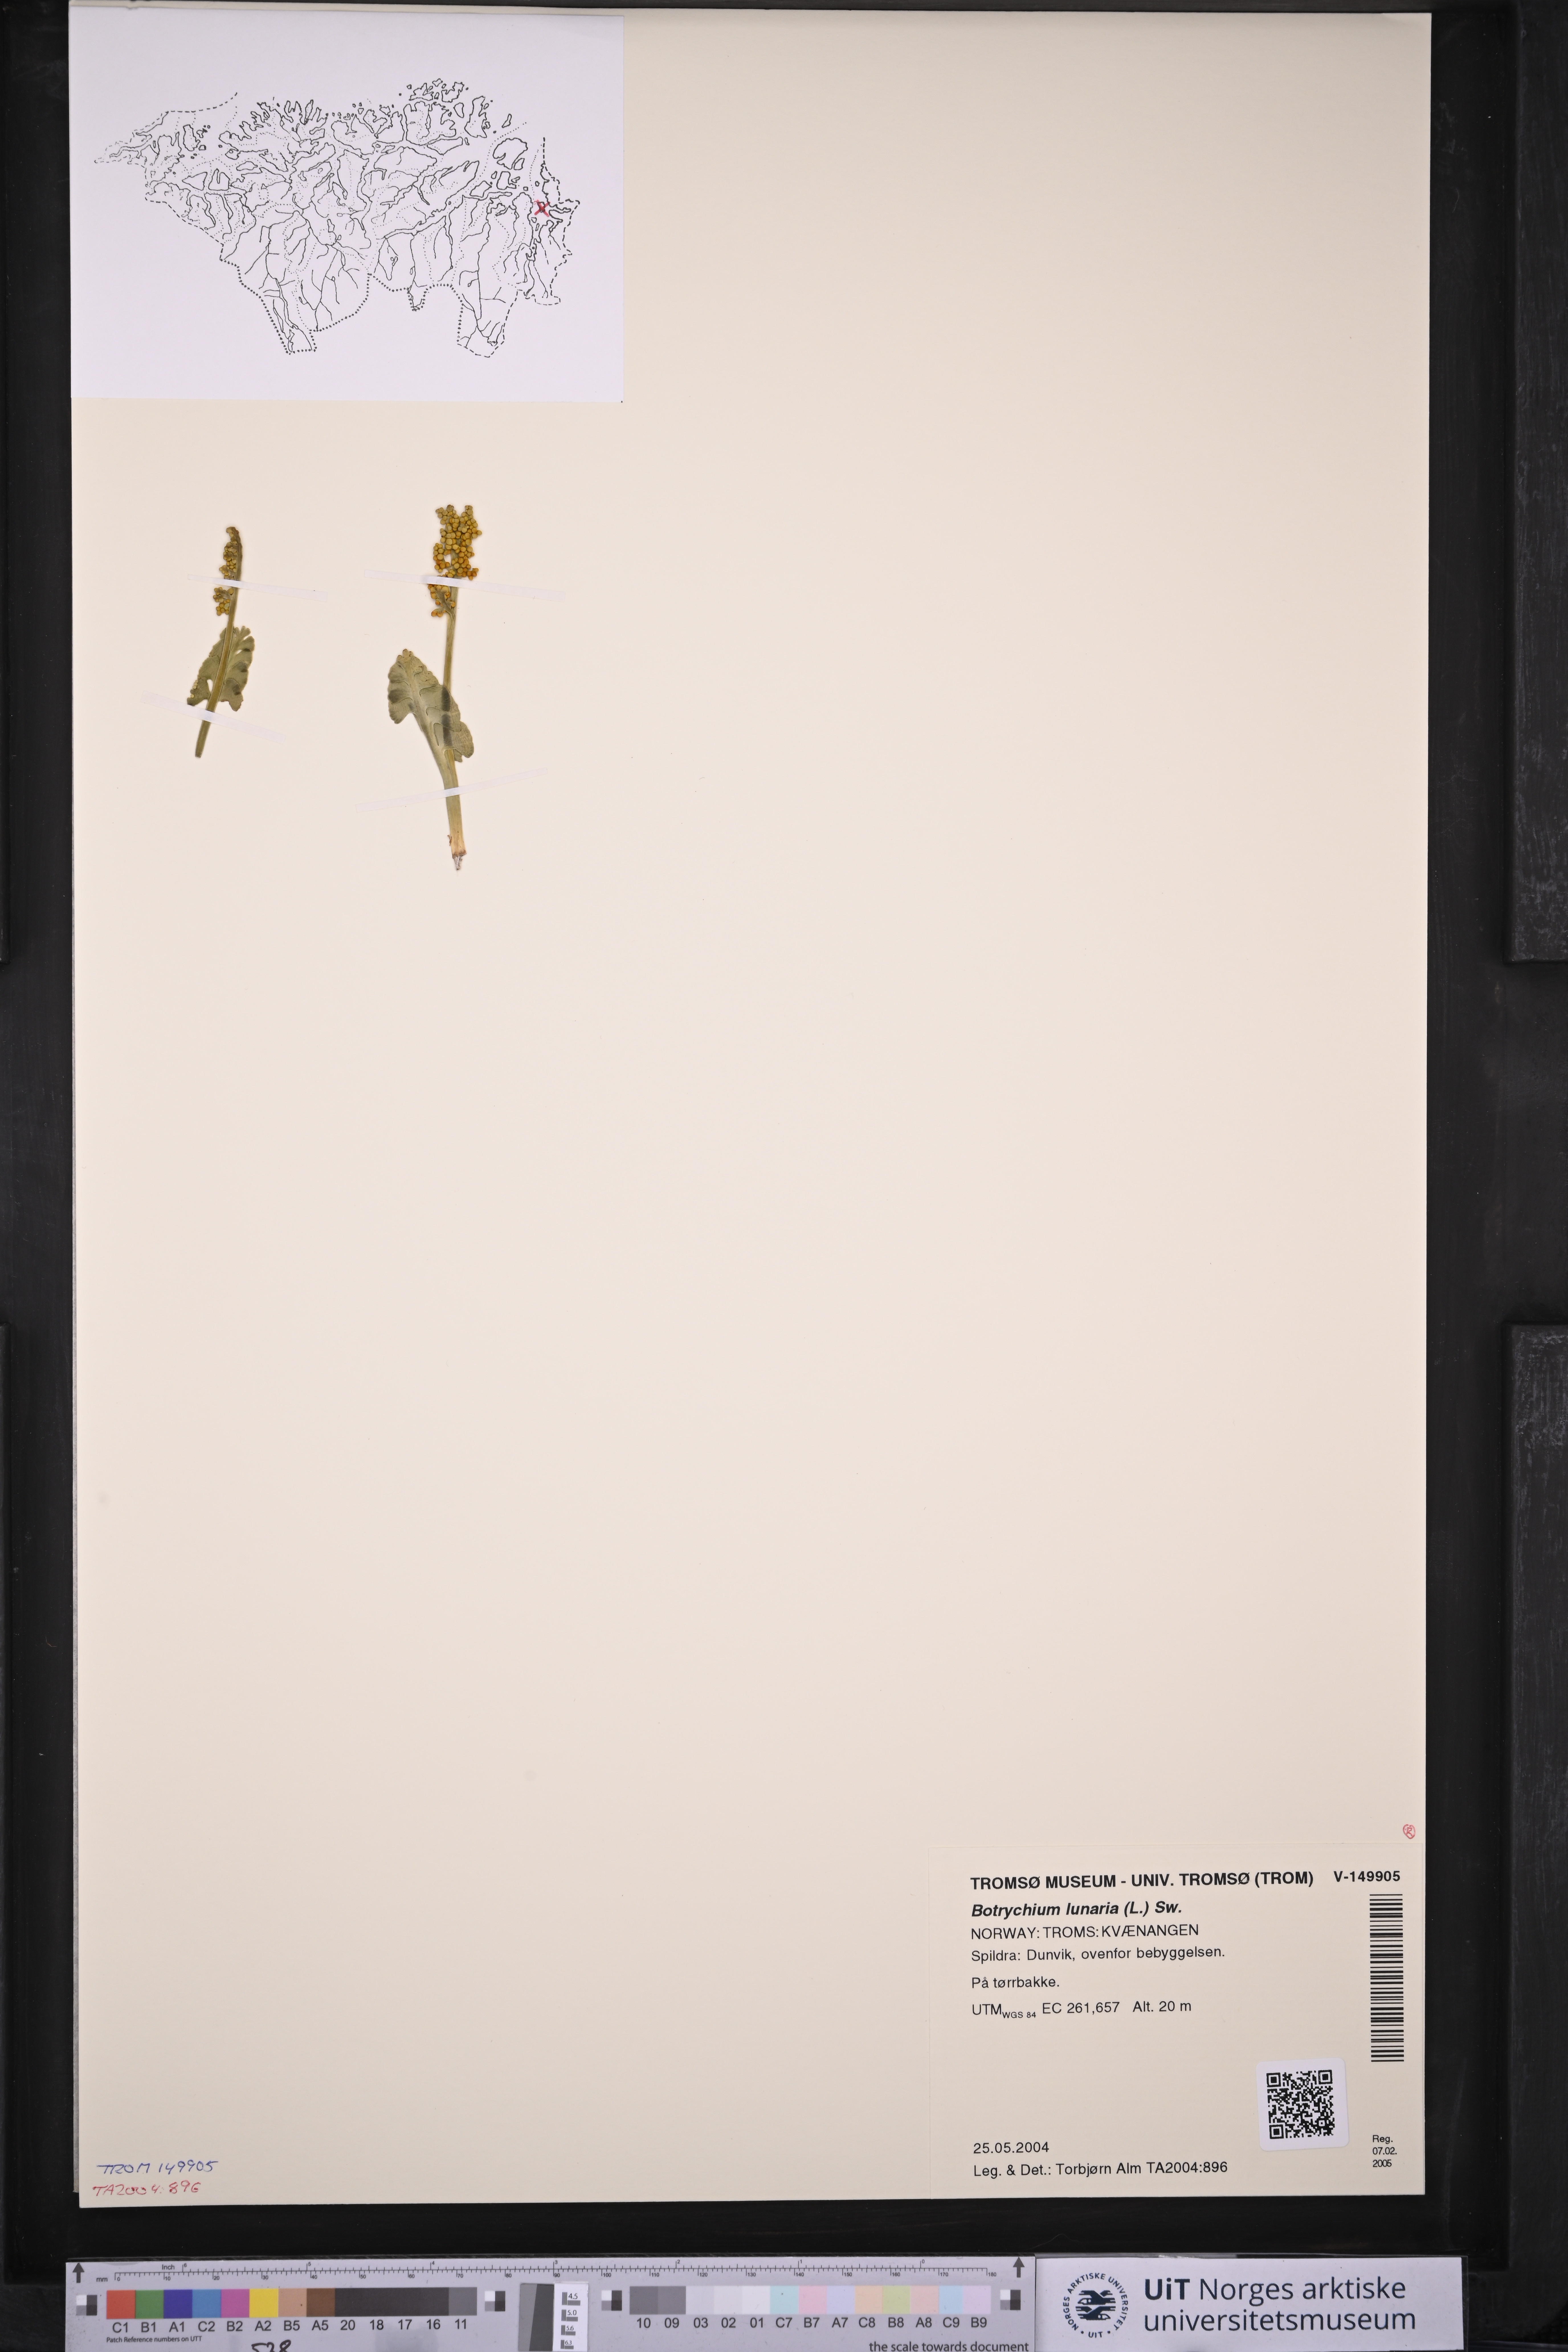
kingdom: Plantae
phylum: Tracheophyta
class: Polypodiopsida
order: Ophioglossales
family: Ophioglossaceae
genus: Botrychium
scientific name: Botrychium lunaria
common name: Moonwort
